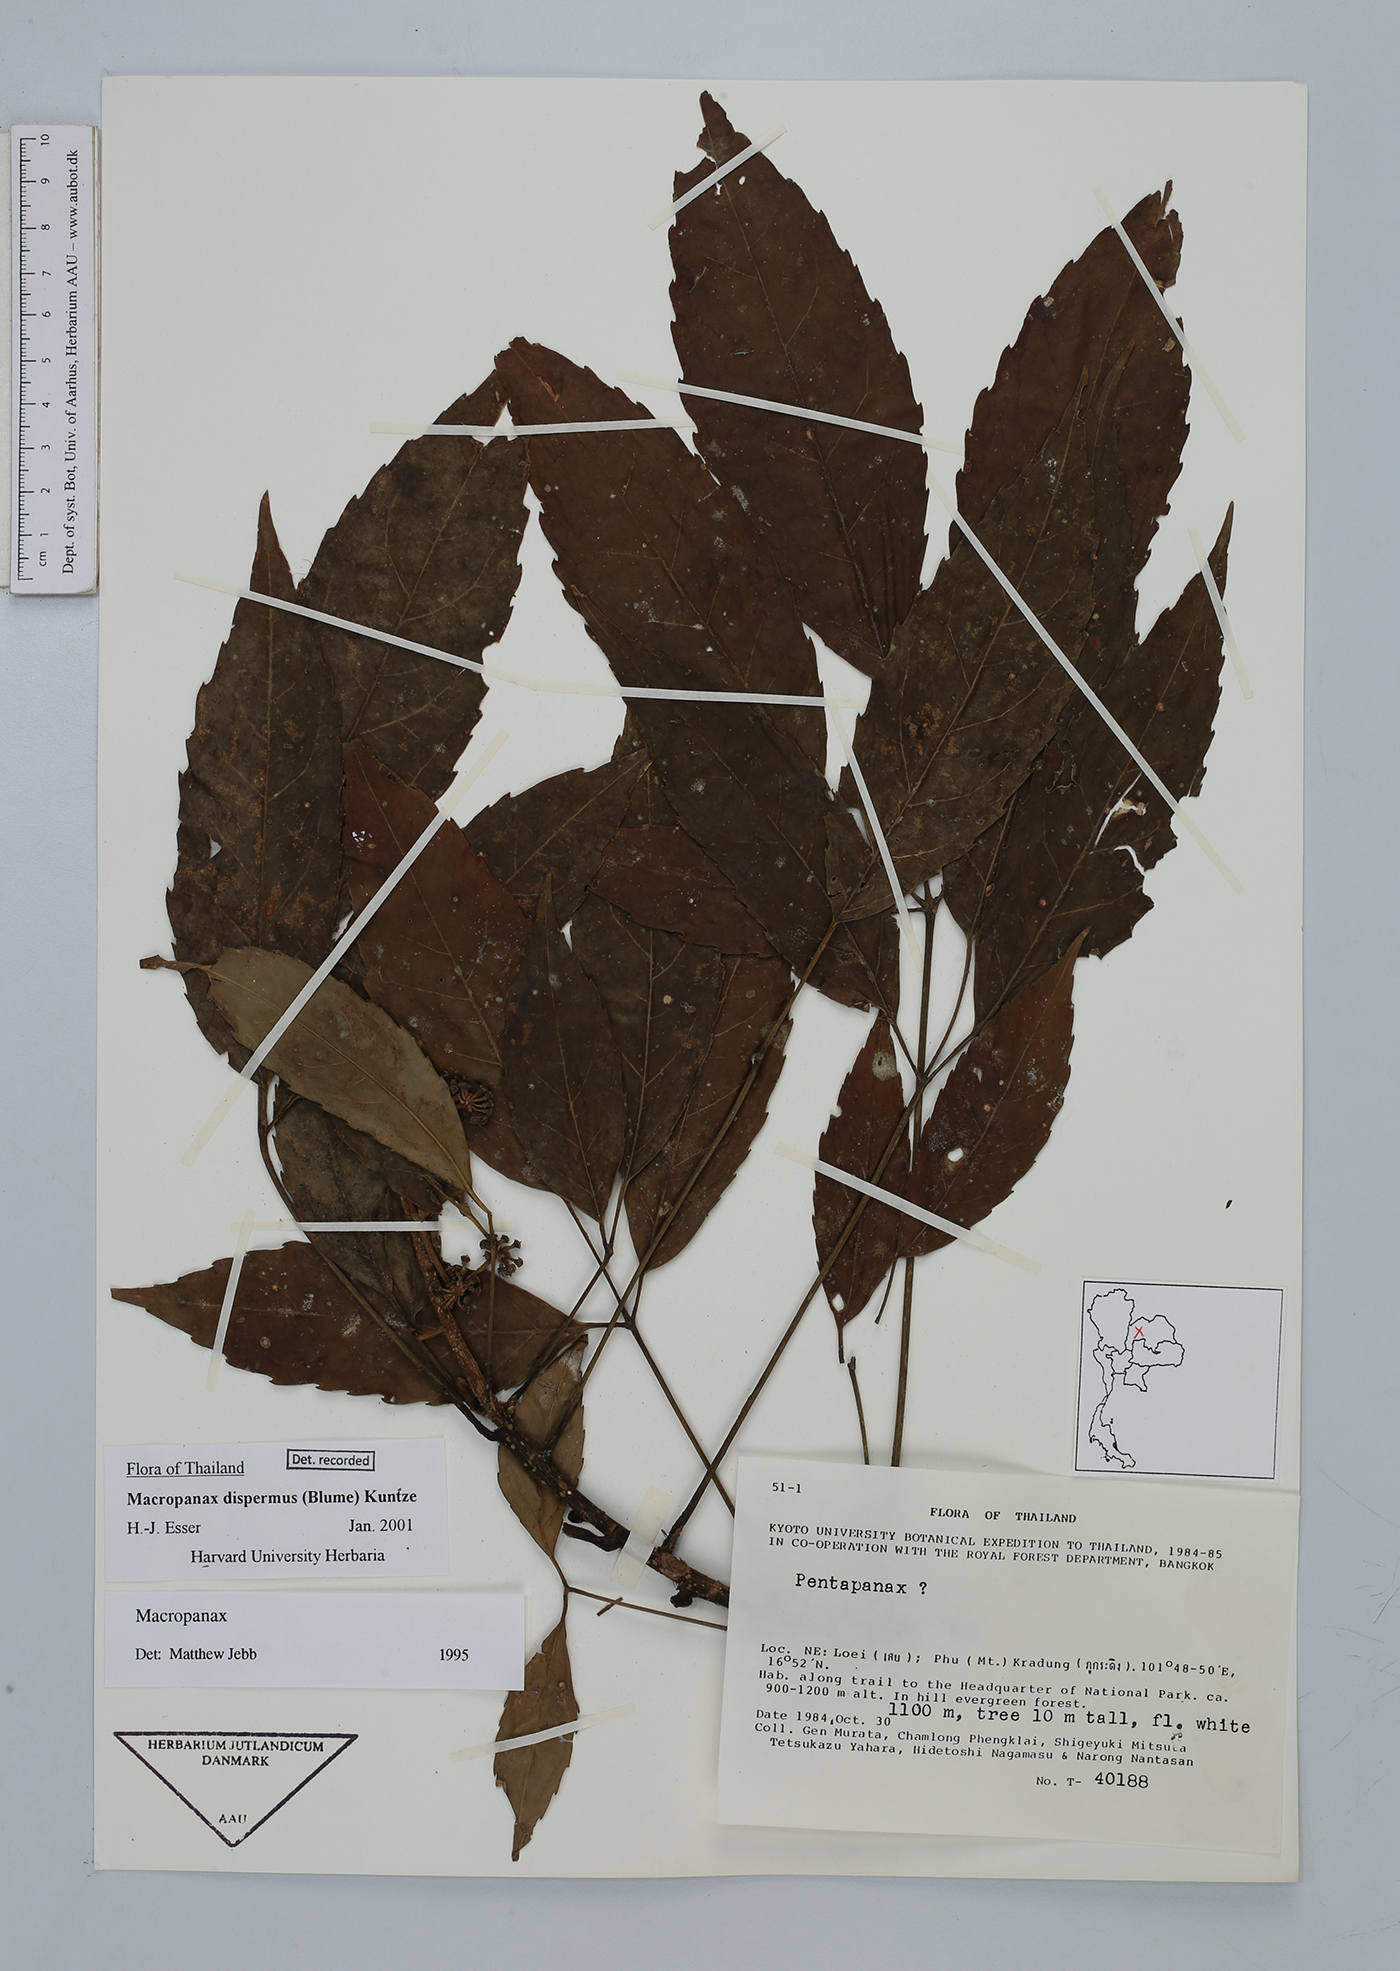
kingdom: Plantae
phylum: Tracheophyta
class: Magnoliopsida
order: Apiales
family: Araliaceae
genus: Macropanax
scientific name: Macropanax dispermus
